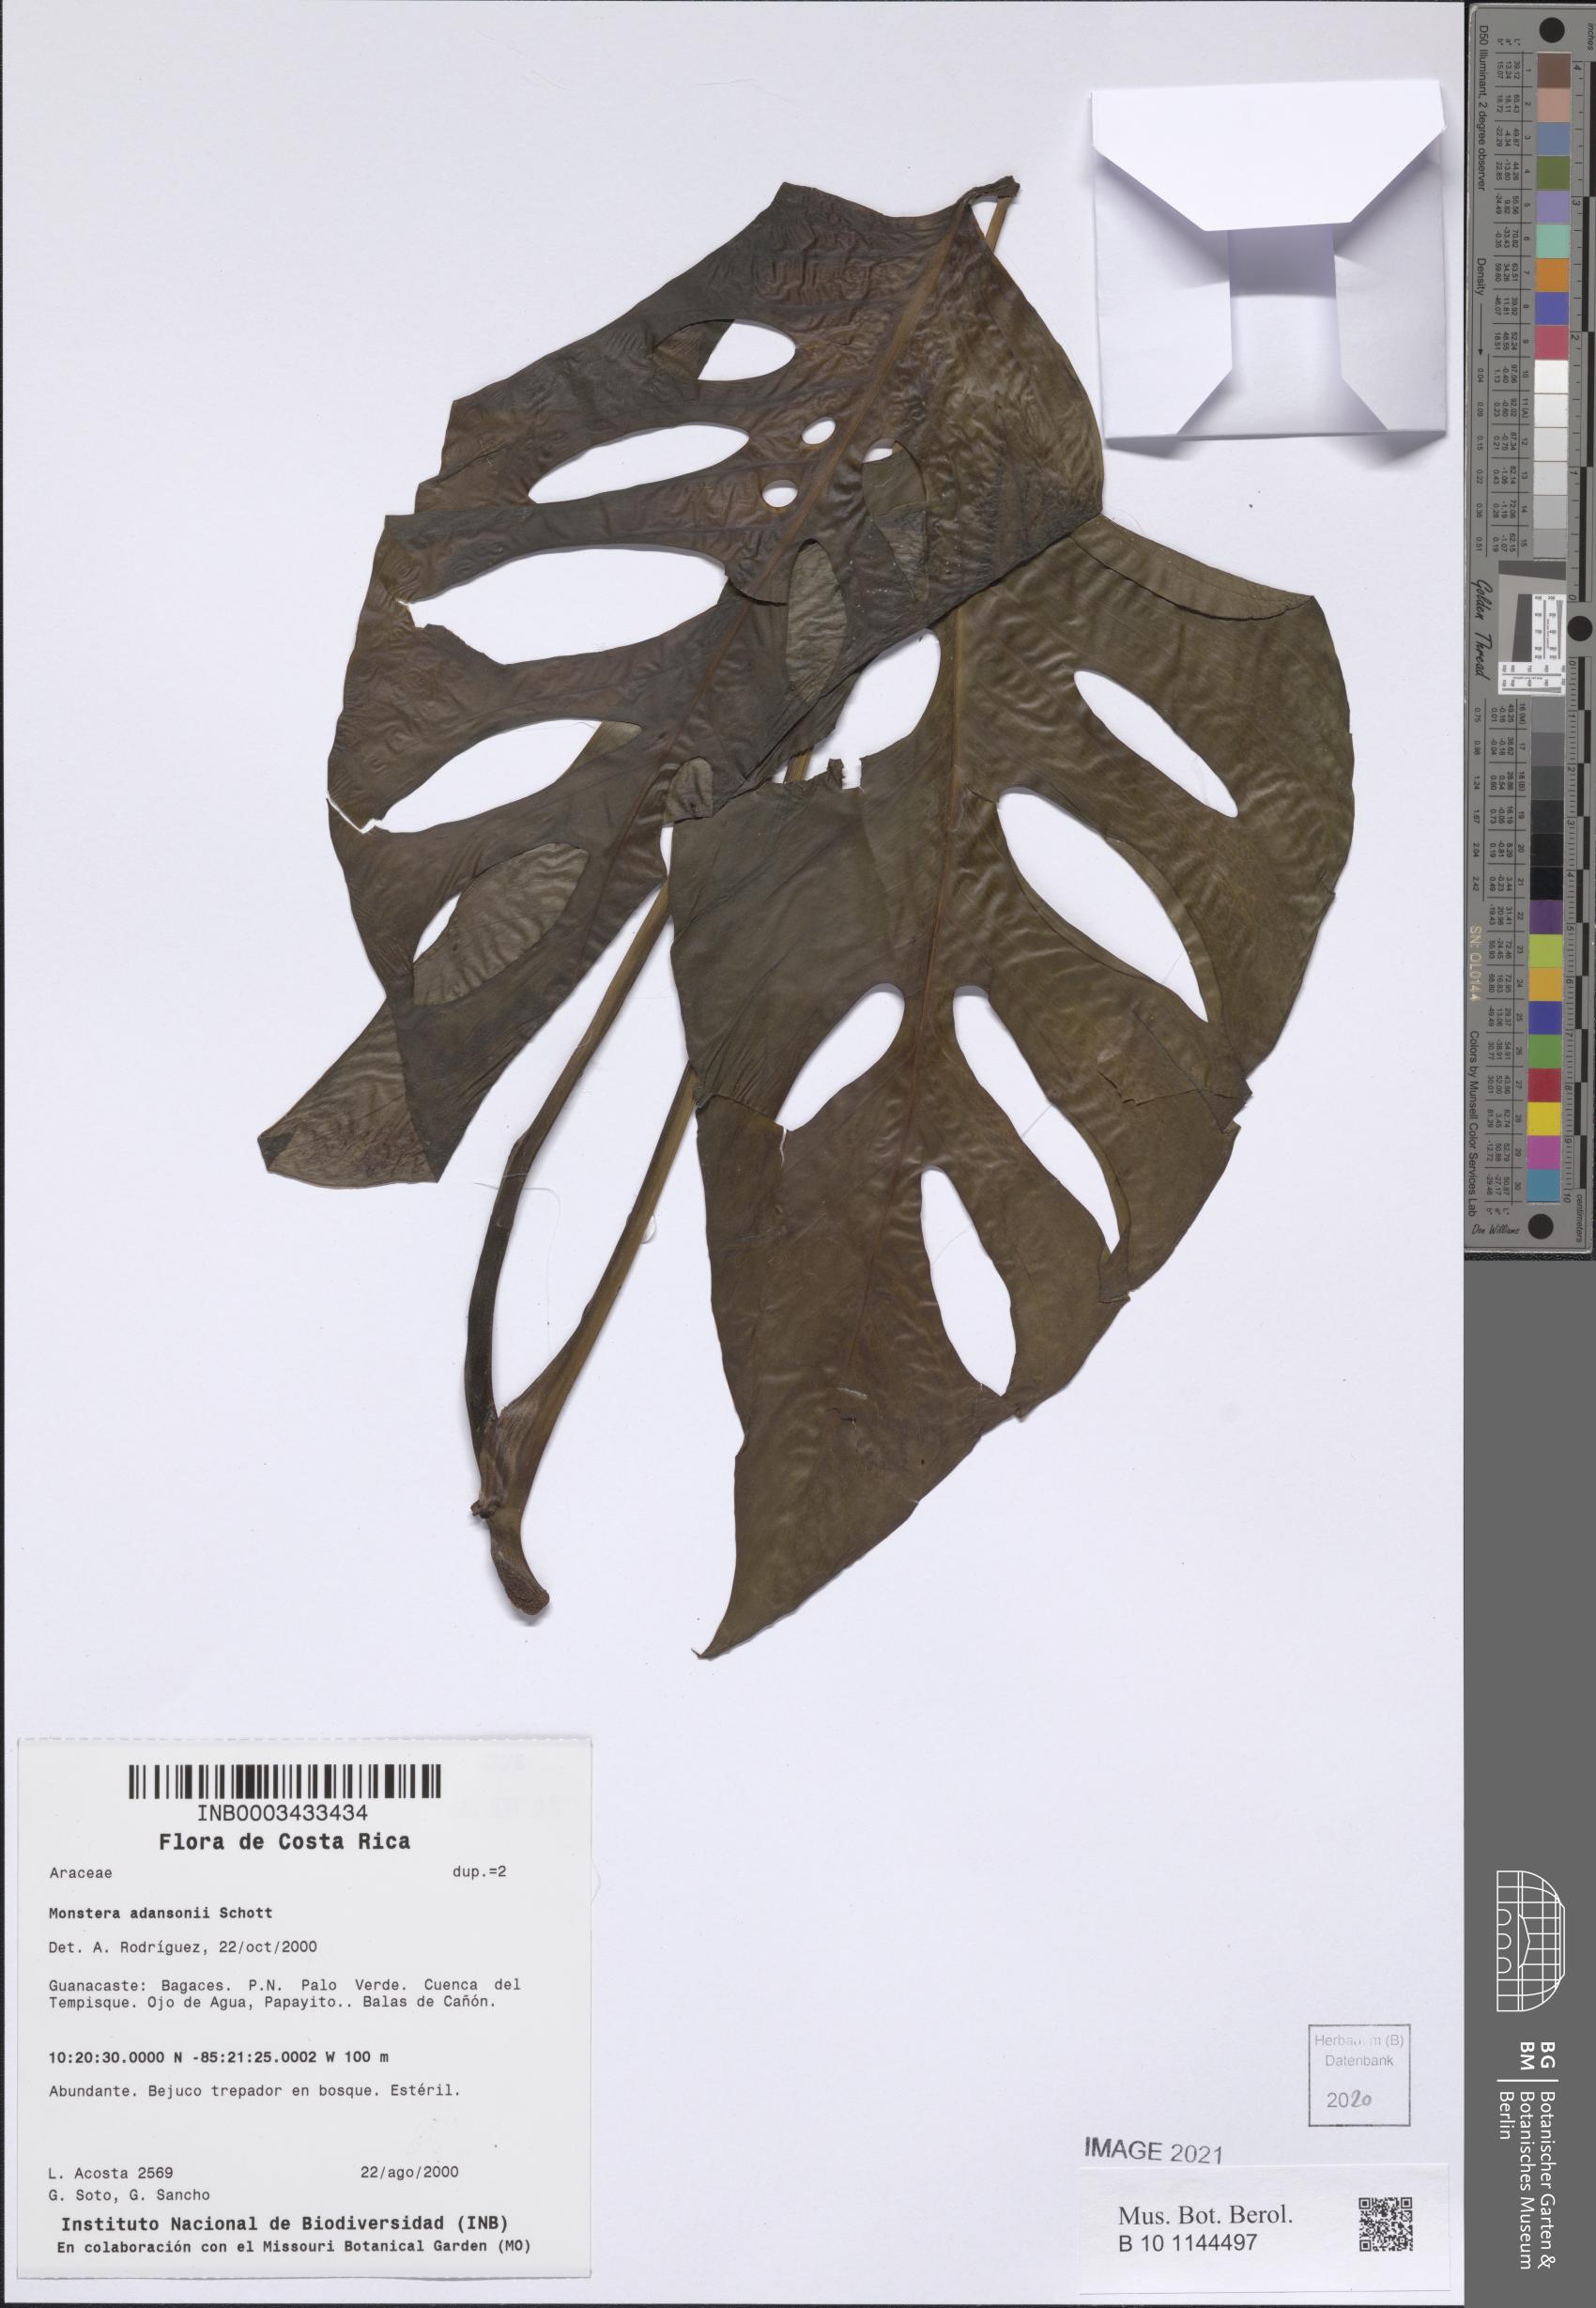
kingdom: Plantae
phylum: Tracheophyta
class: Liliopsida
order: Alismatales
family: Araceae
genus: Monstera
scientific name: Monstera adansonii
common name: Tarovine
